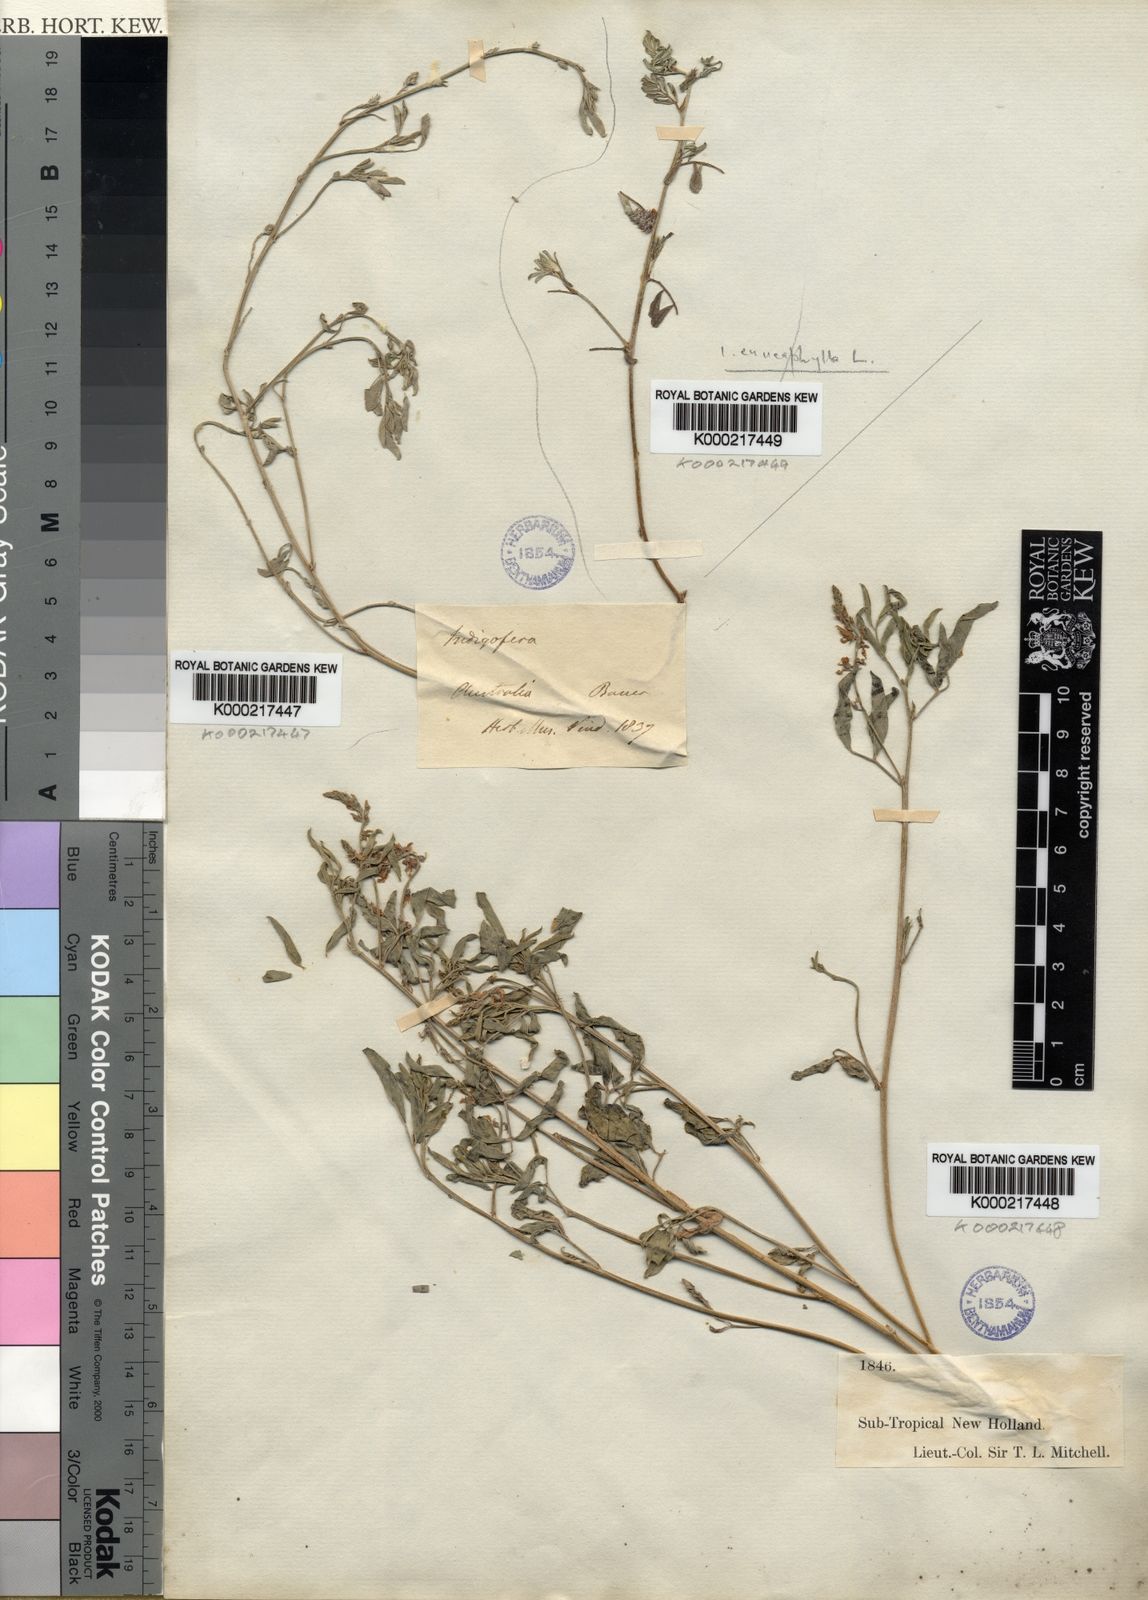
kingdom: Plantae
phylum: Tracheophyta
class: Magnoliopsida
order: Fabales
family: Fabaceae
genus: Indigofera
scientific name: Indigofera
